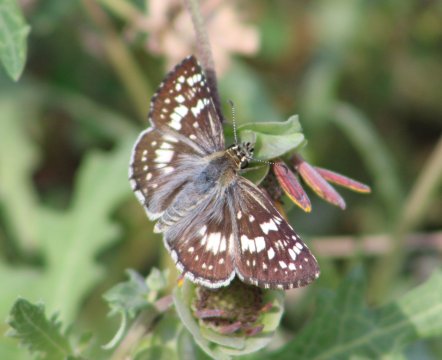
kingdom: Animalia
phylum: Arthropoda
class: Insecta
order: Lepidoptera
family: Hesperiidae
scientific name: Hesperiidae
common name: Skippers
